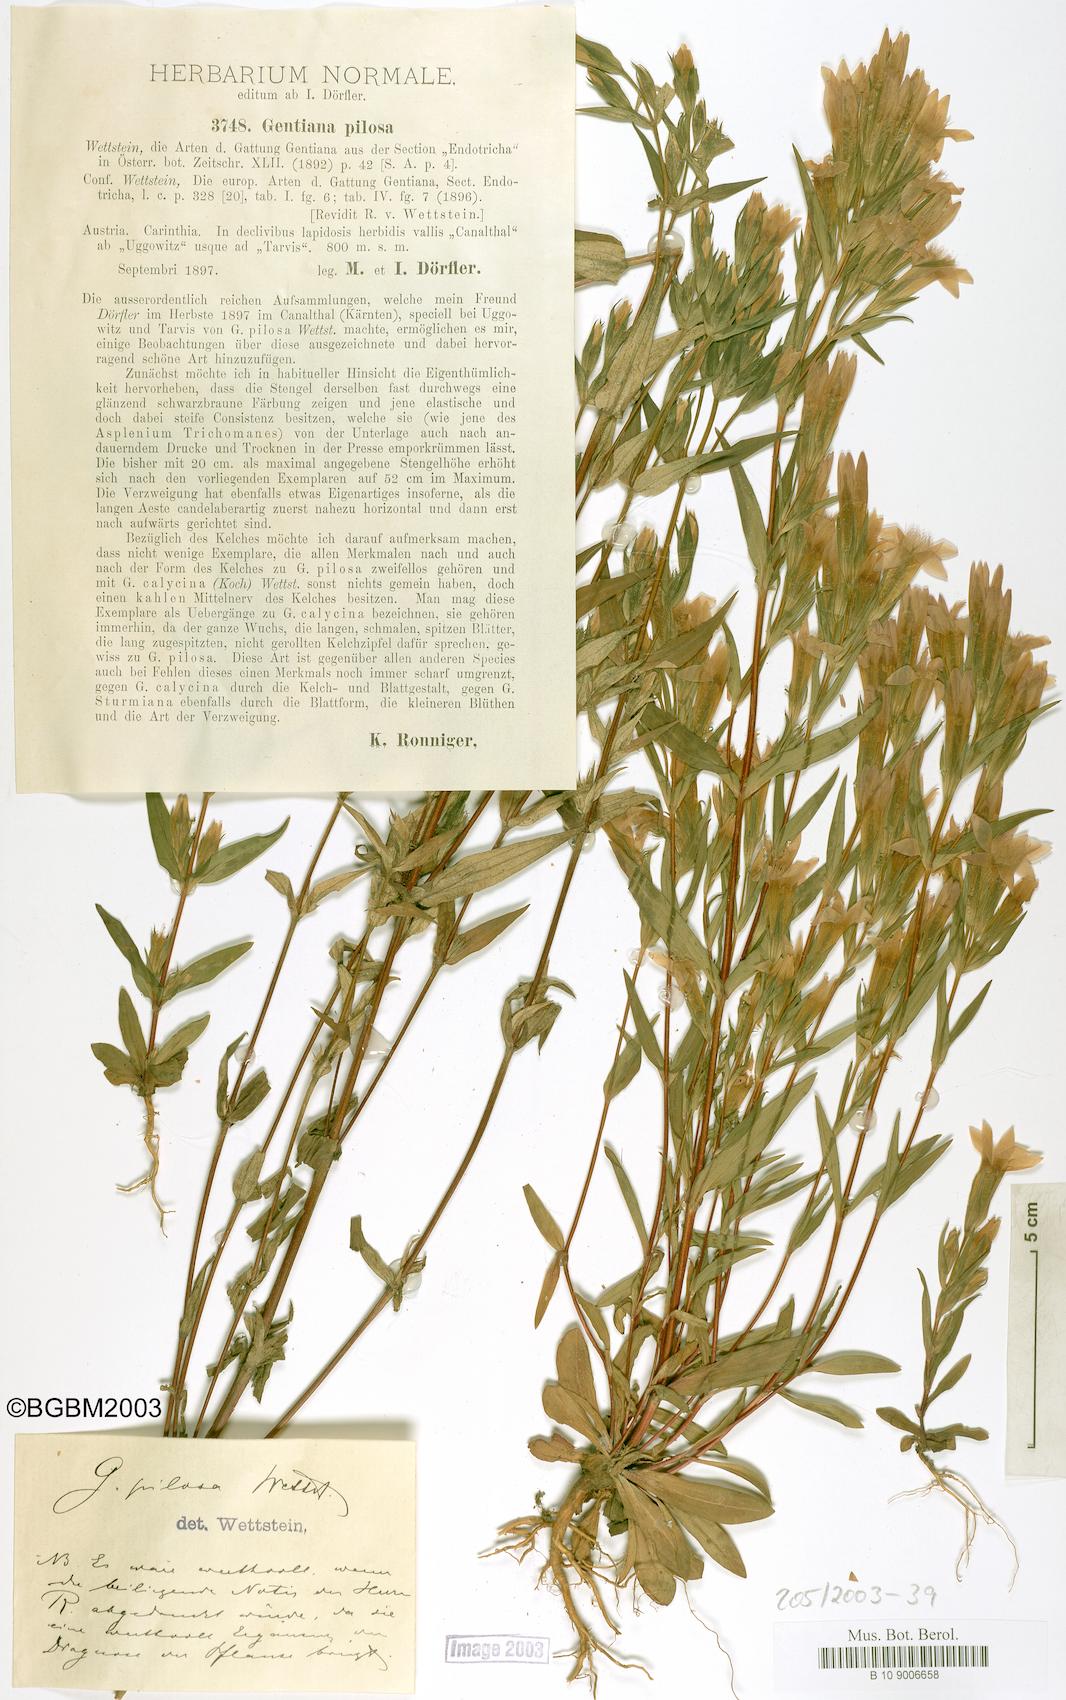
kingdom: Plantae
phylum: Tracheophyta
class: Magnoliopsida
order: Gentianales
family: Gentianaceae
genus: Gentianella
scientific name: Gentianella pilosa
